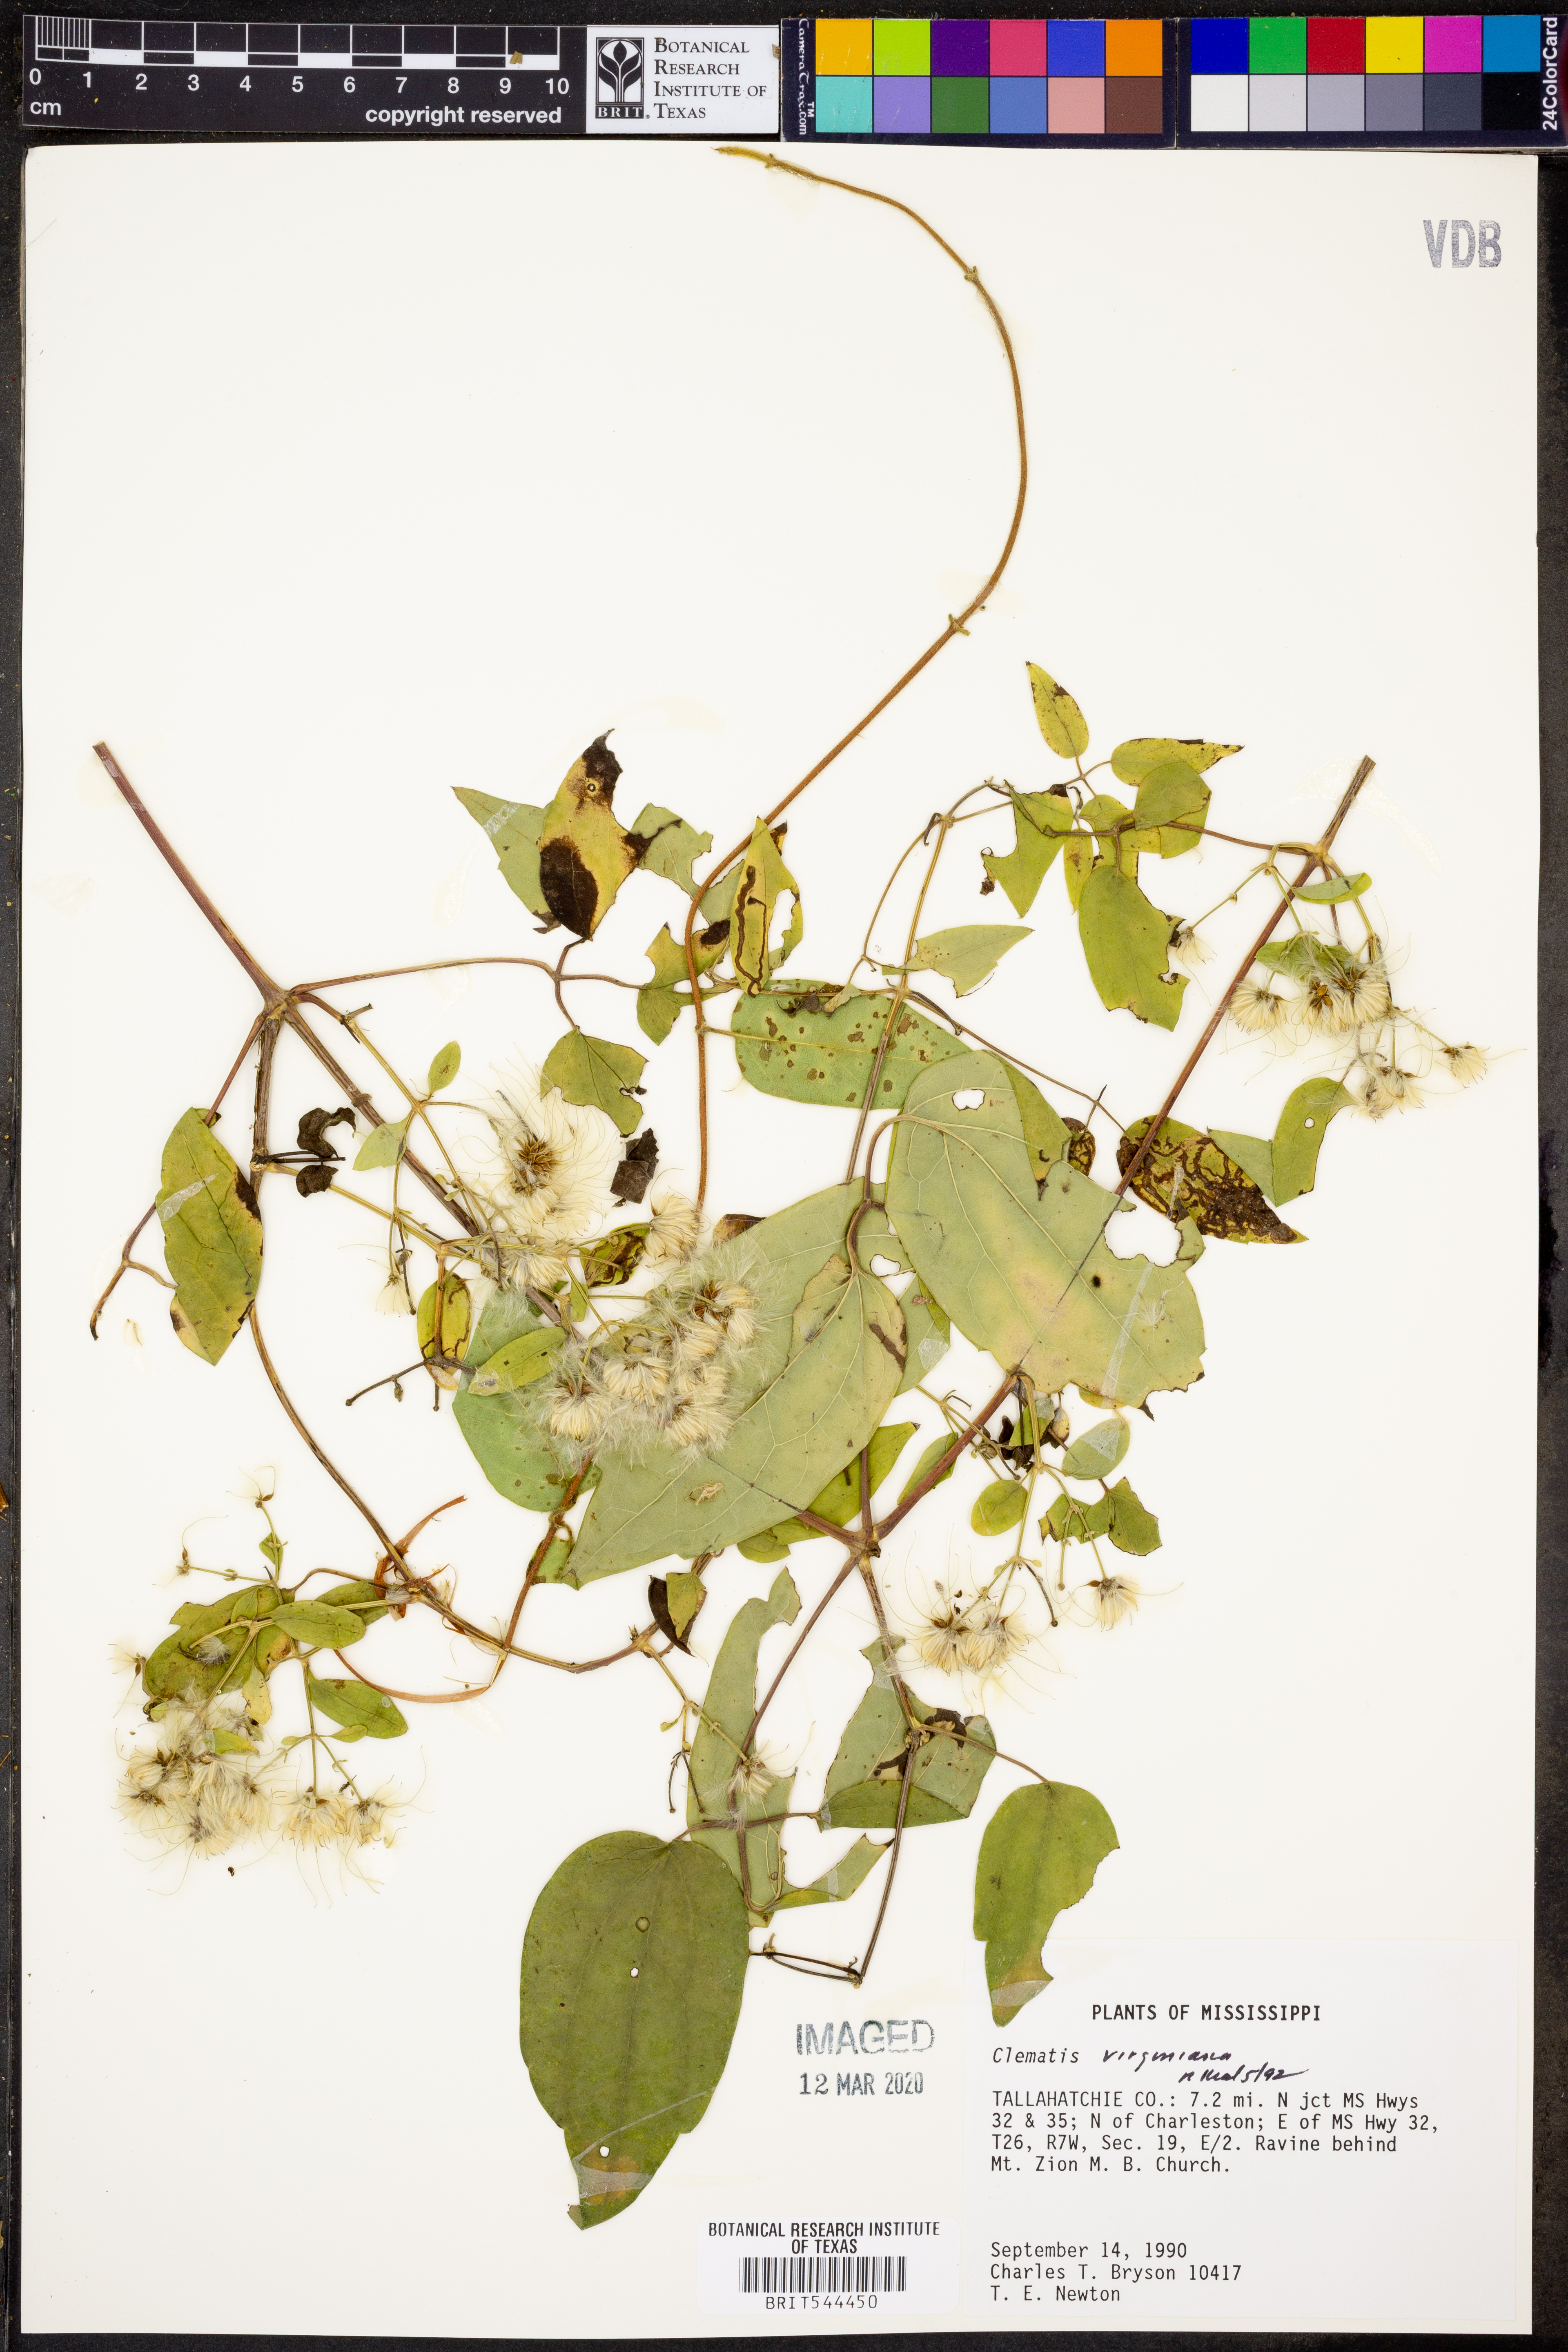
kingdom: Plantae
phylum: Tracheophyta
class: Magnoliopsida
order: Ranunculales
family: Ranunculaceae
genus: Clematis
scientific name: Clematis virginiana
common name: Virgin's-bower
